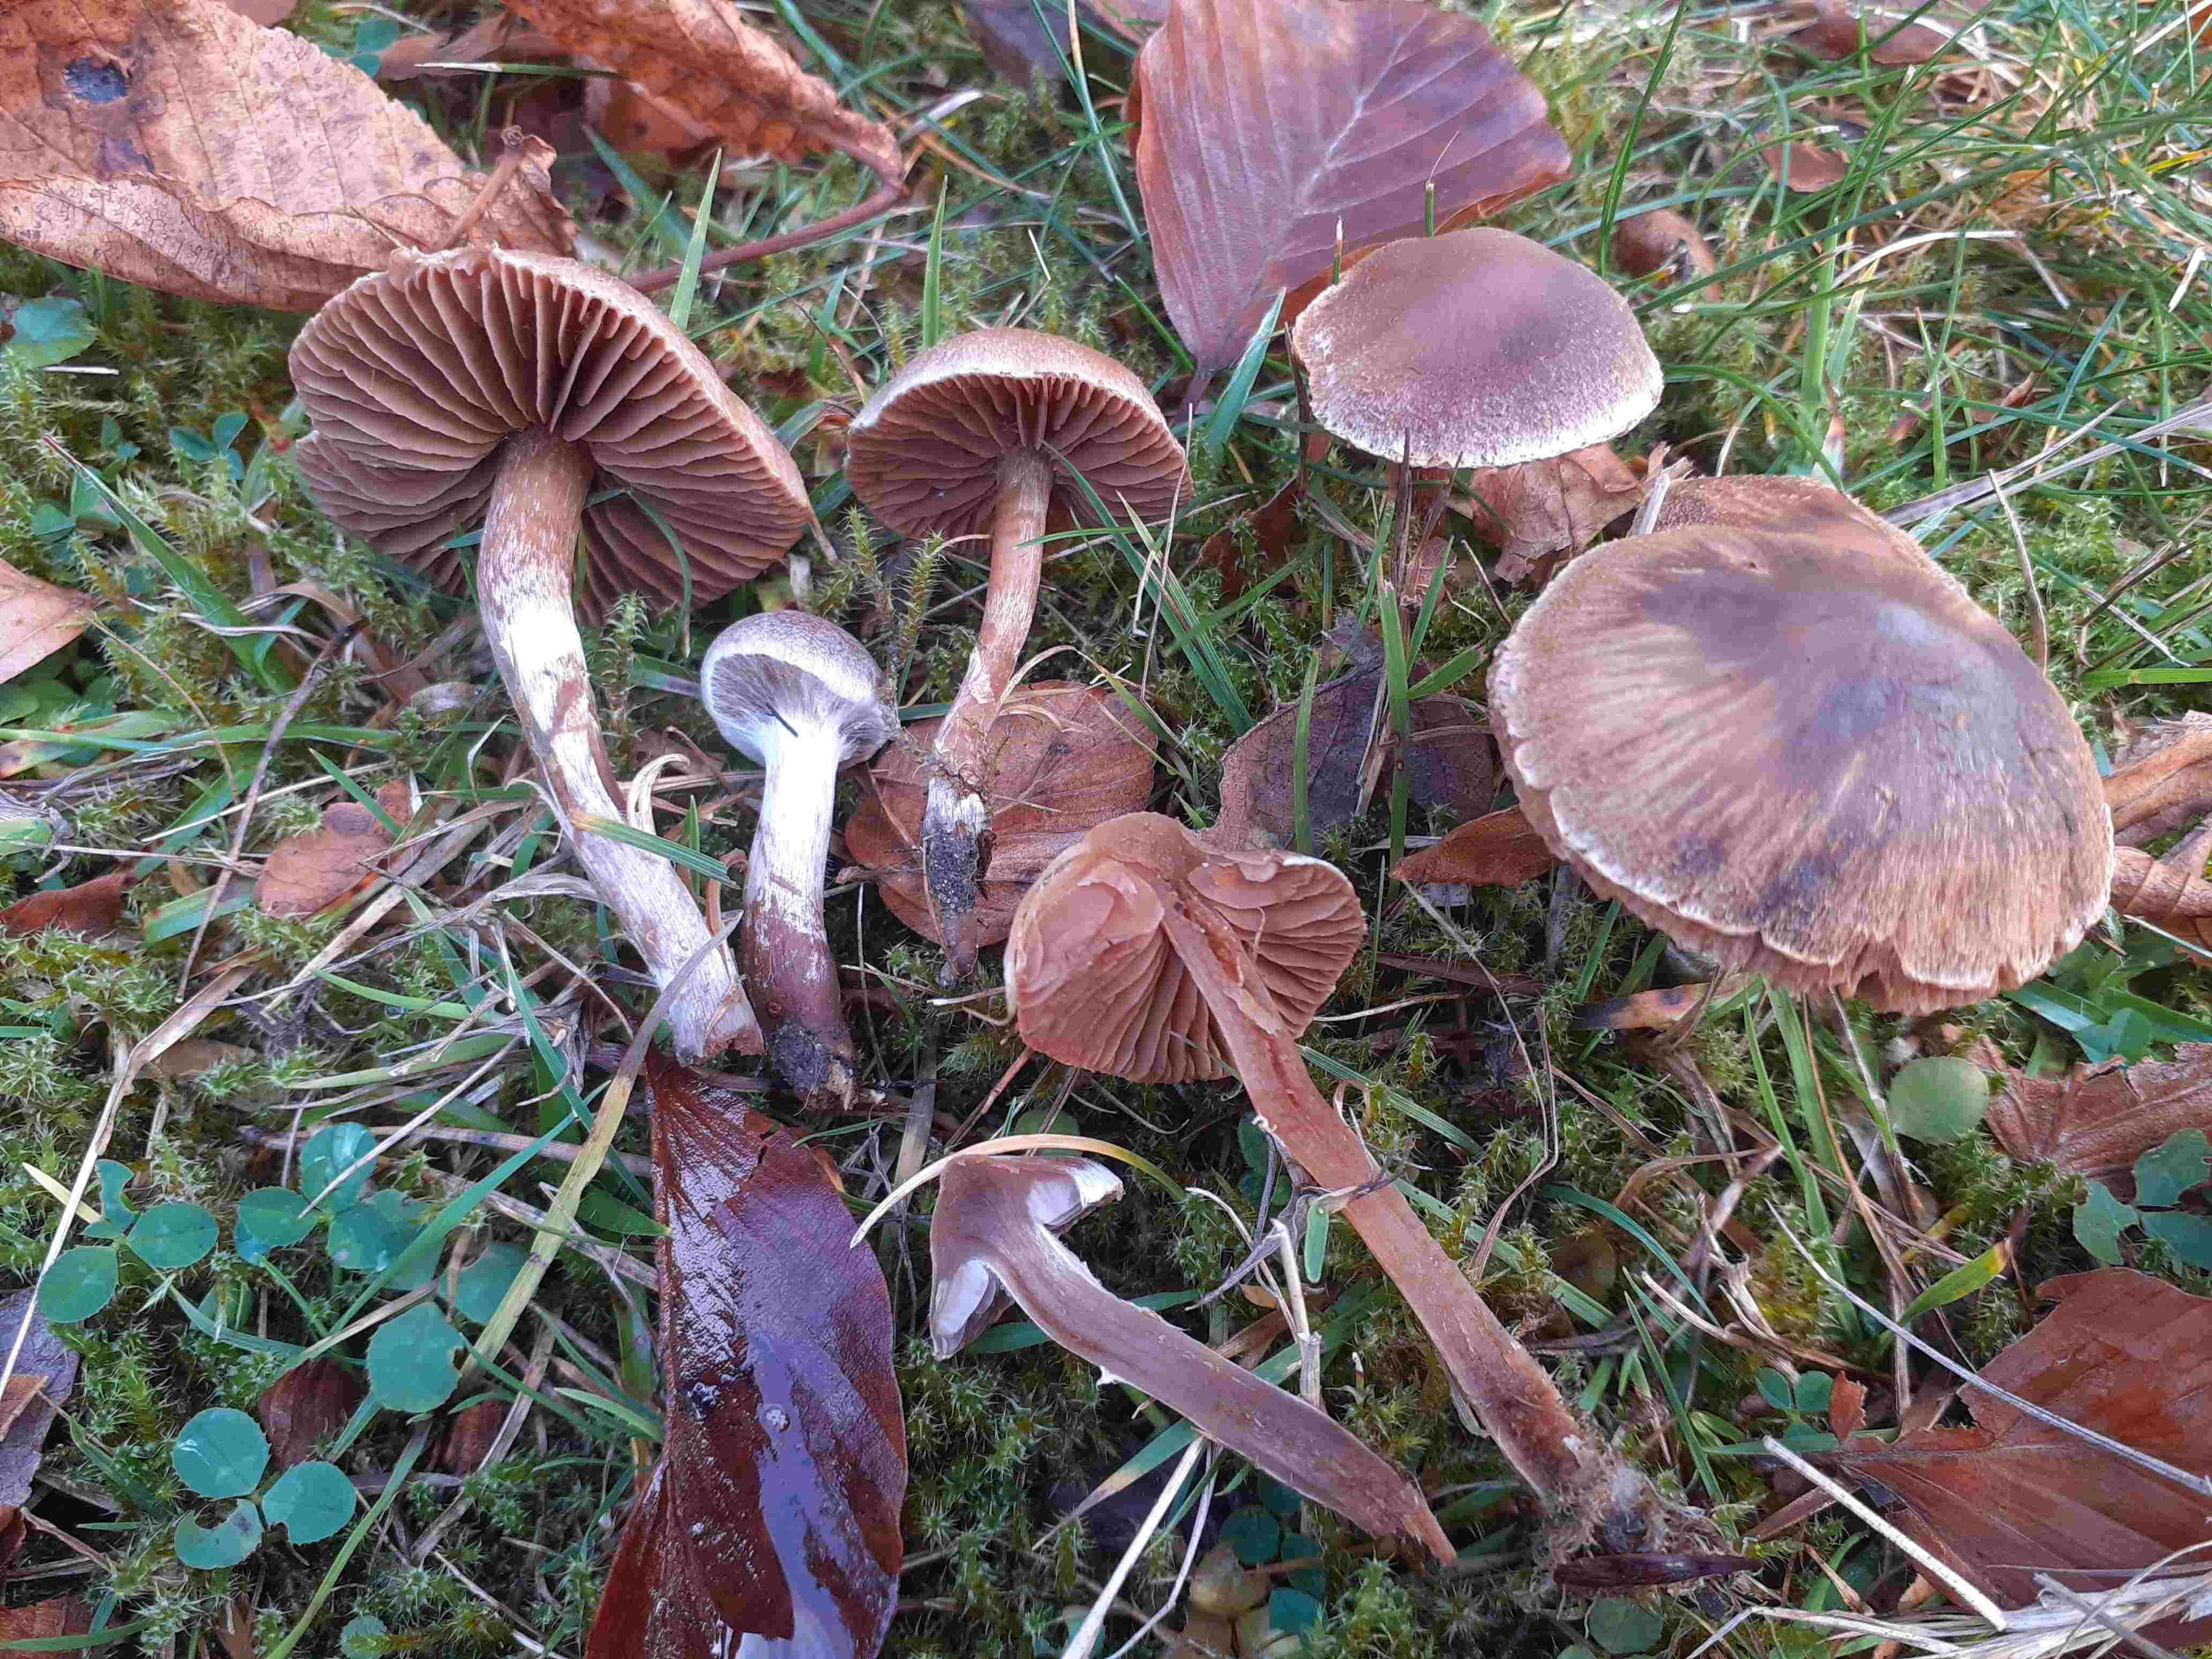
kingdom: Fungi
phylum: Basidiomycota
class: Agaricomycetes
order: Agaricales
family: Cortinariaceae
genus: Cortinarius
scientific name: Cortinarius geraniolens
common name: geranium-slørhat
